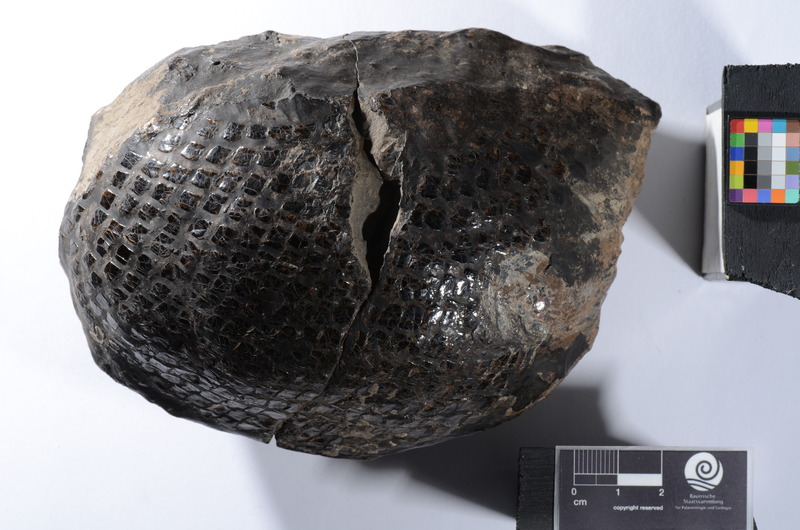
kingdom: Animalia
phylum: Chordata
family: Ophiopsiellidae
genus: Heterolepidotus
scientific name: Heterolepidotus latus
